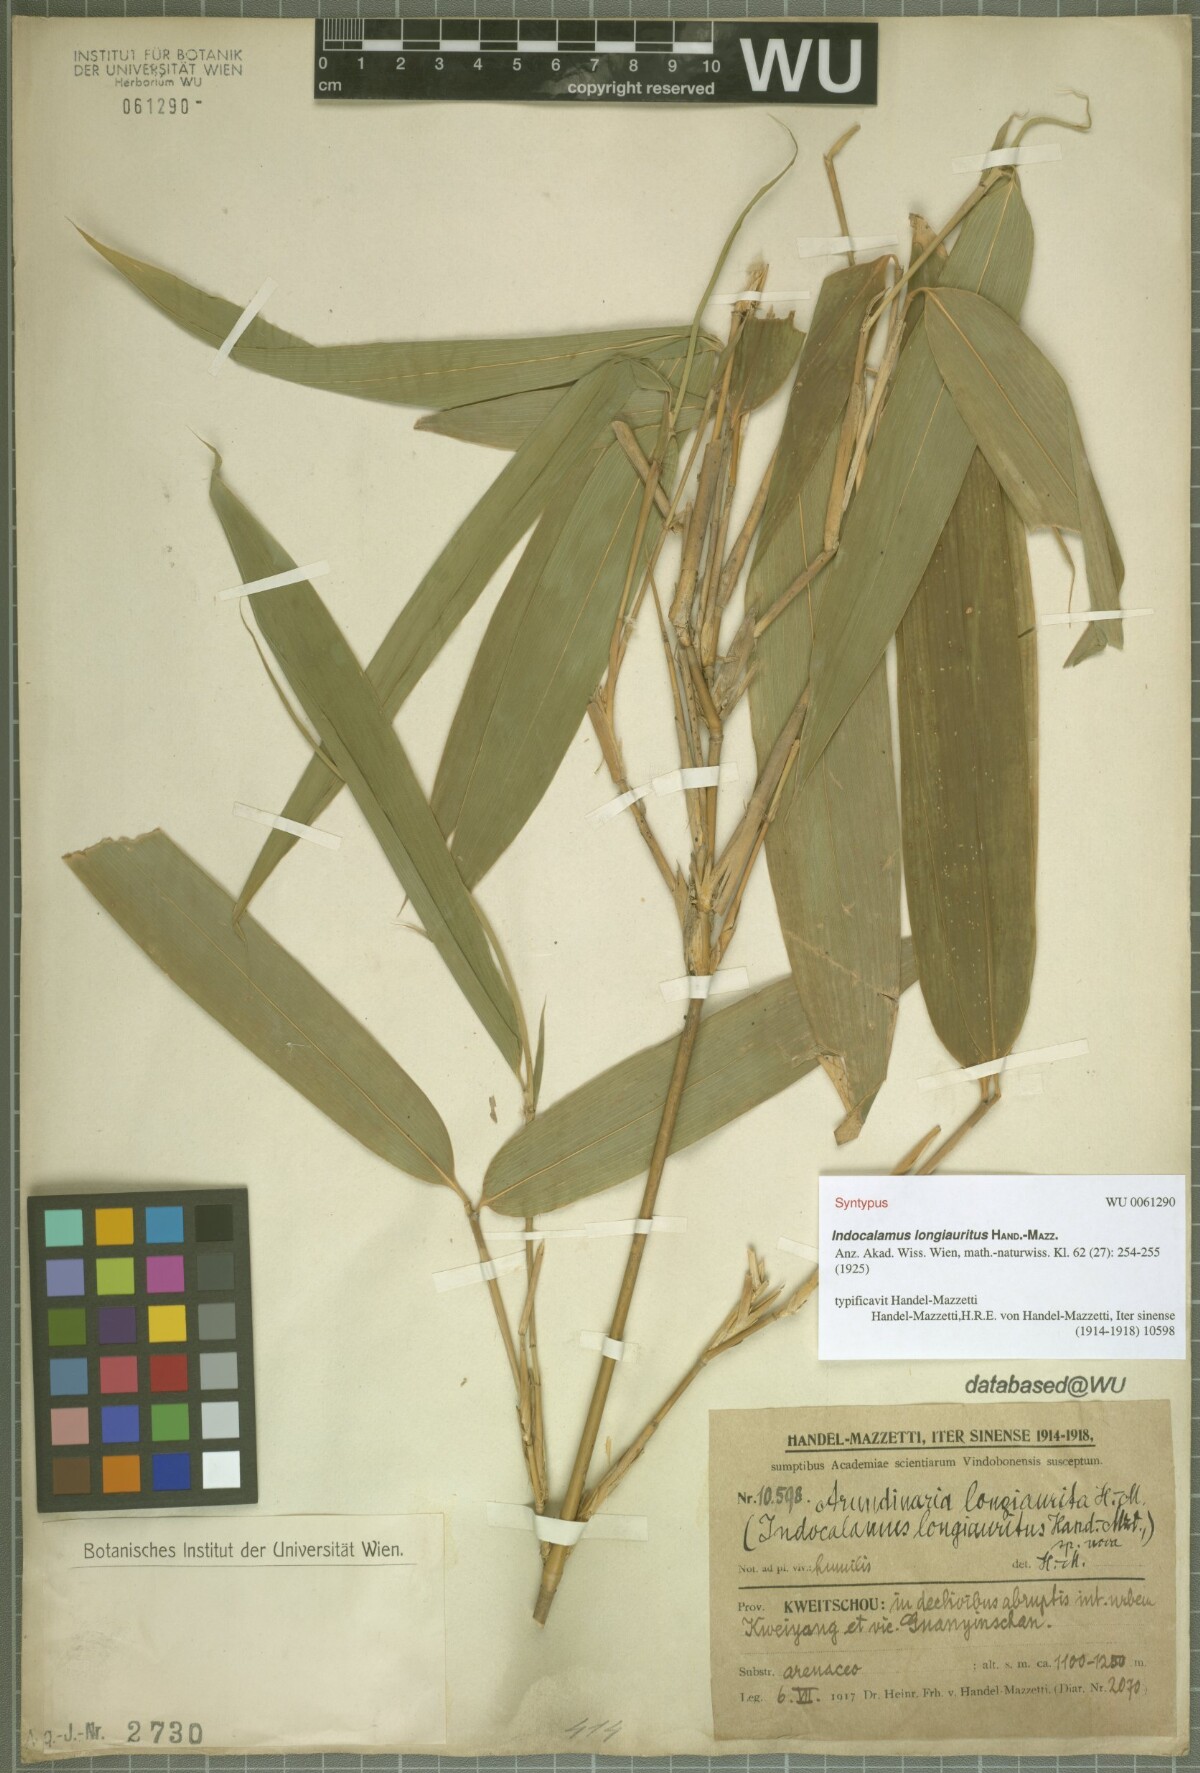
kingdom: Plantae
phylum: Tracheophyta
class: Liliopsida
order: Poales
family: Poaceae
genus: Indocalamus
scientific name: Indocalamus longiauritus
